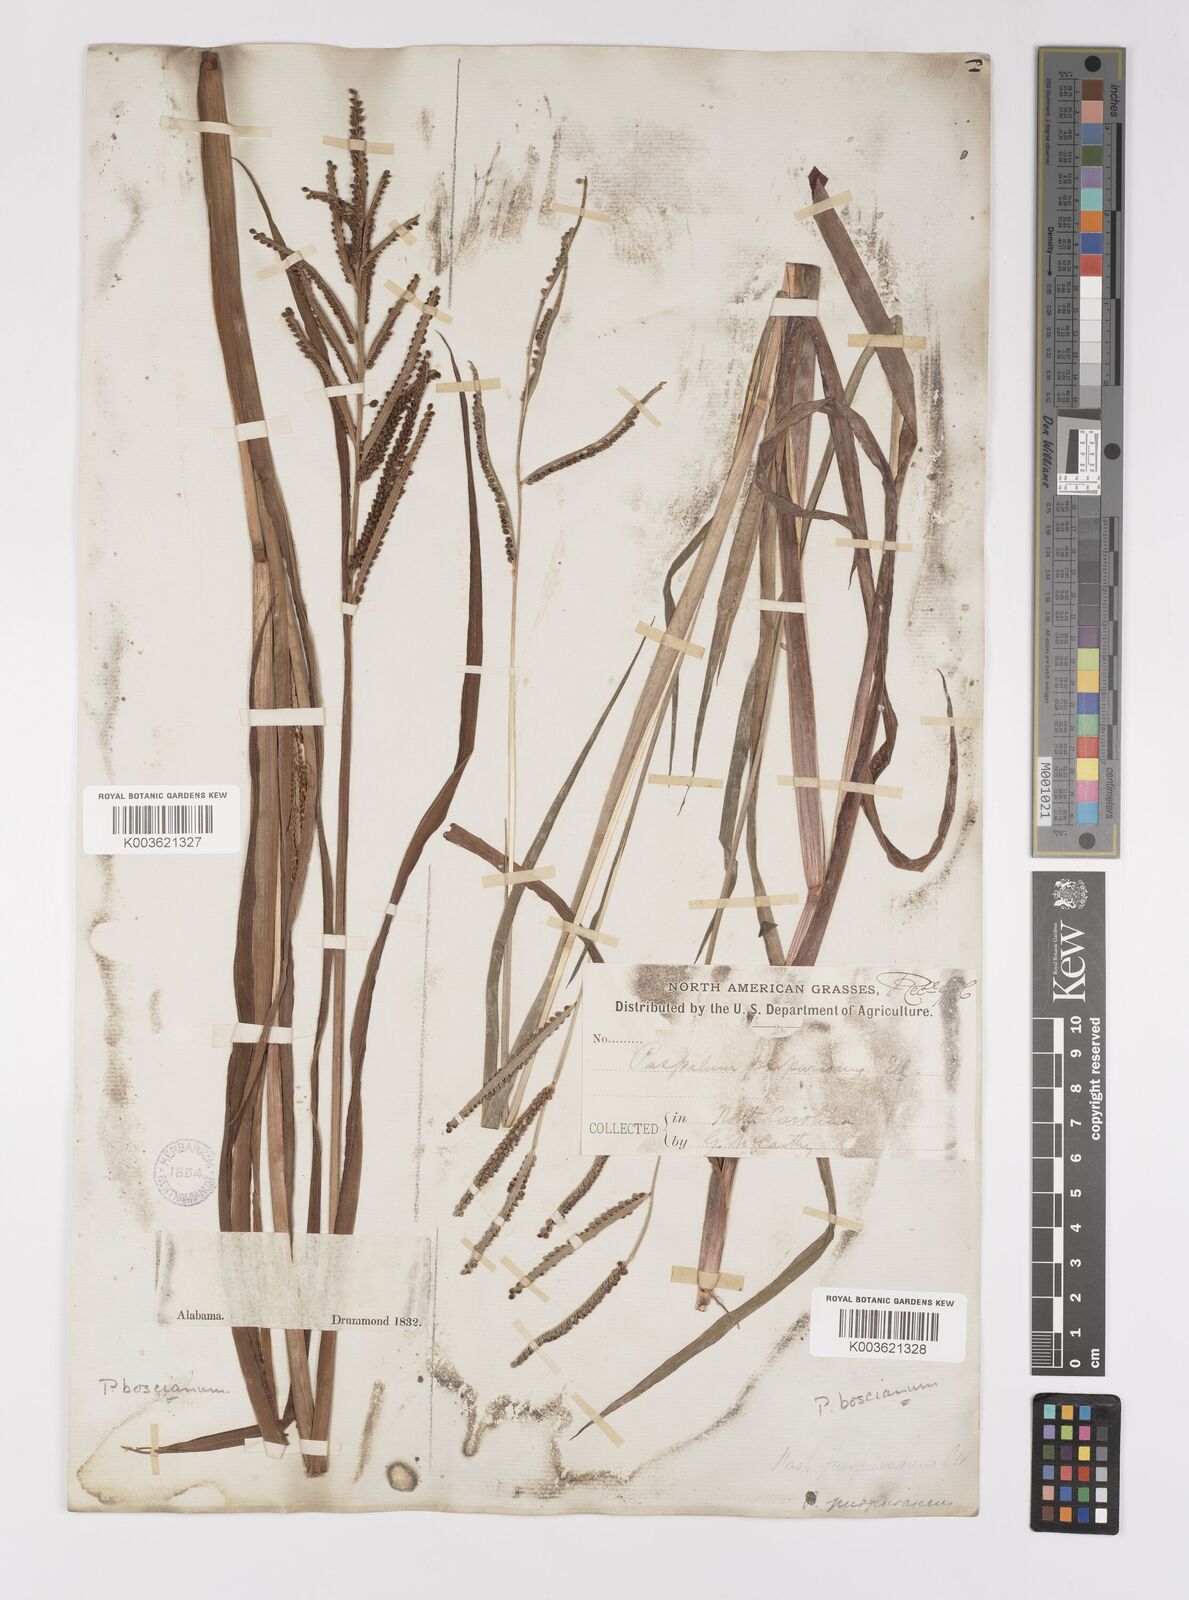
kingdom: Plantae
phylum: Tracheophyta
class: Liliopsida
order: Poales
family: Poaceae
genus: Paspalum
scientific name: Paspalum scrobiculatum
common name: Kodo millet
